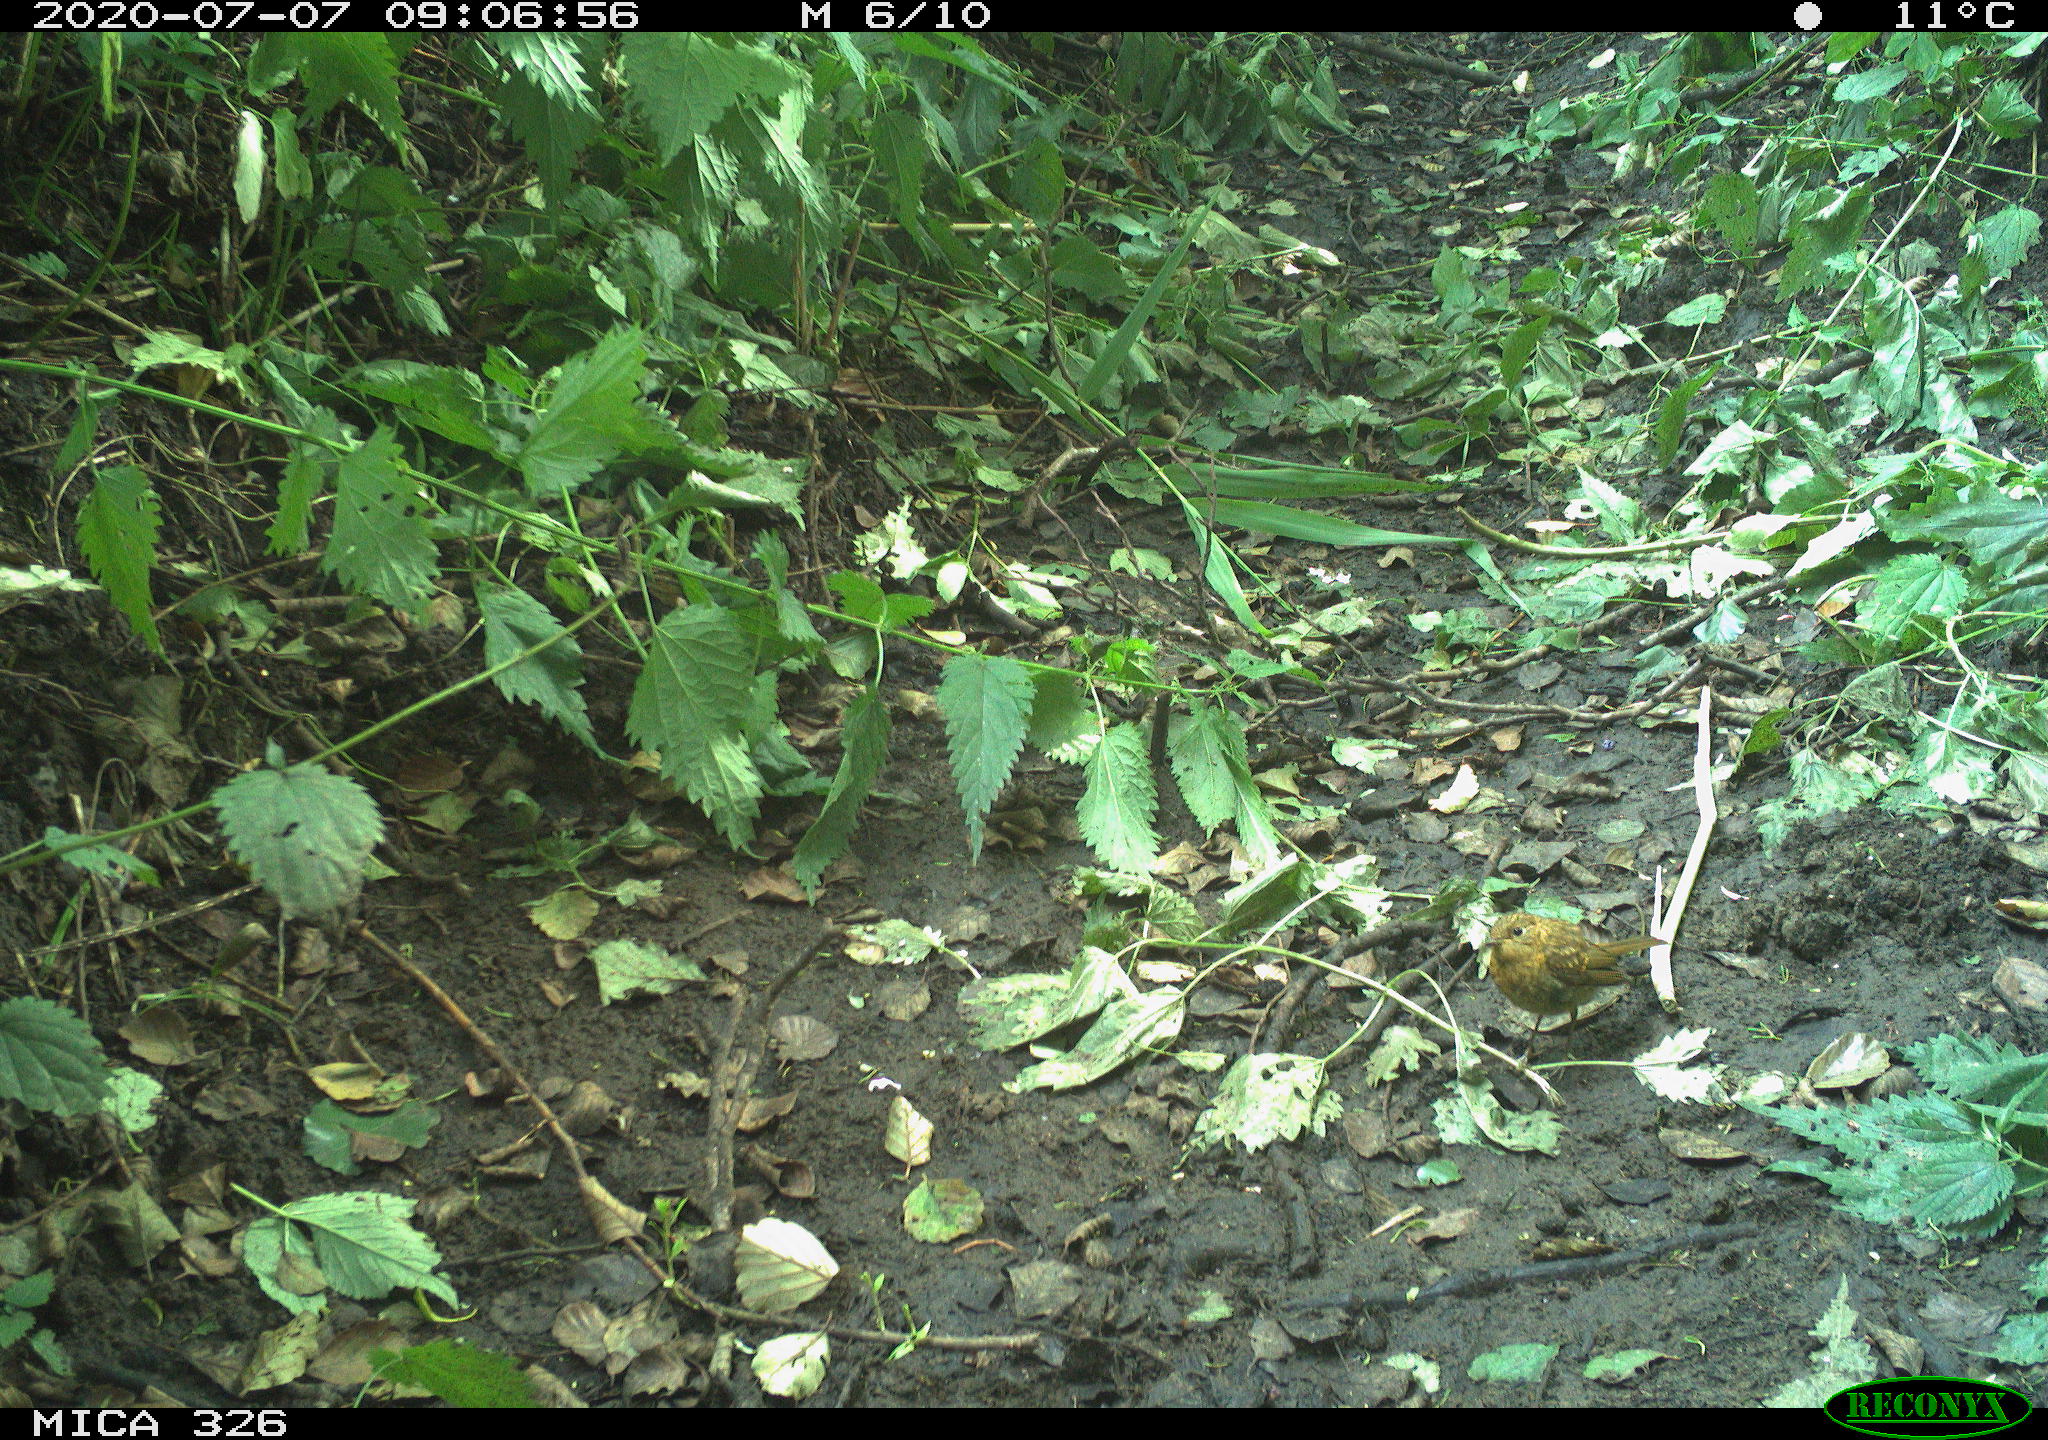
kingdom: Animalia
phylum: Chordata
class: Aves
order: Passeriformes
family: Turdidae
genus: Turdus
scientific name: Turdus philomelos
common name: Song thrush
